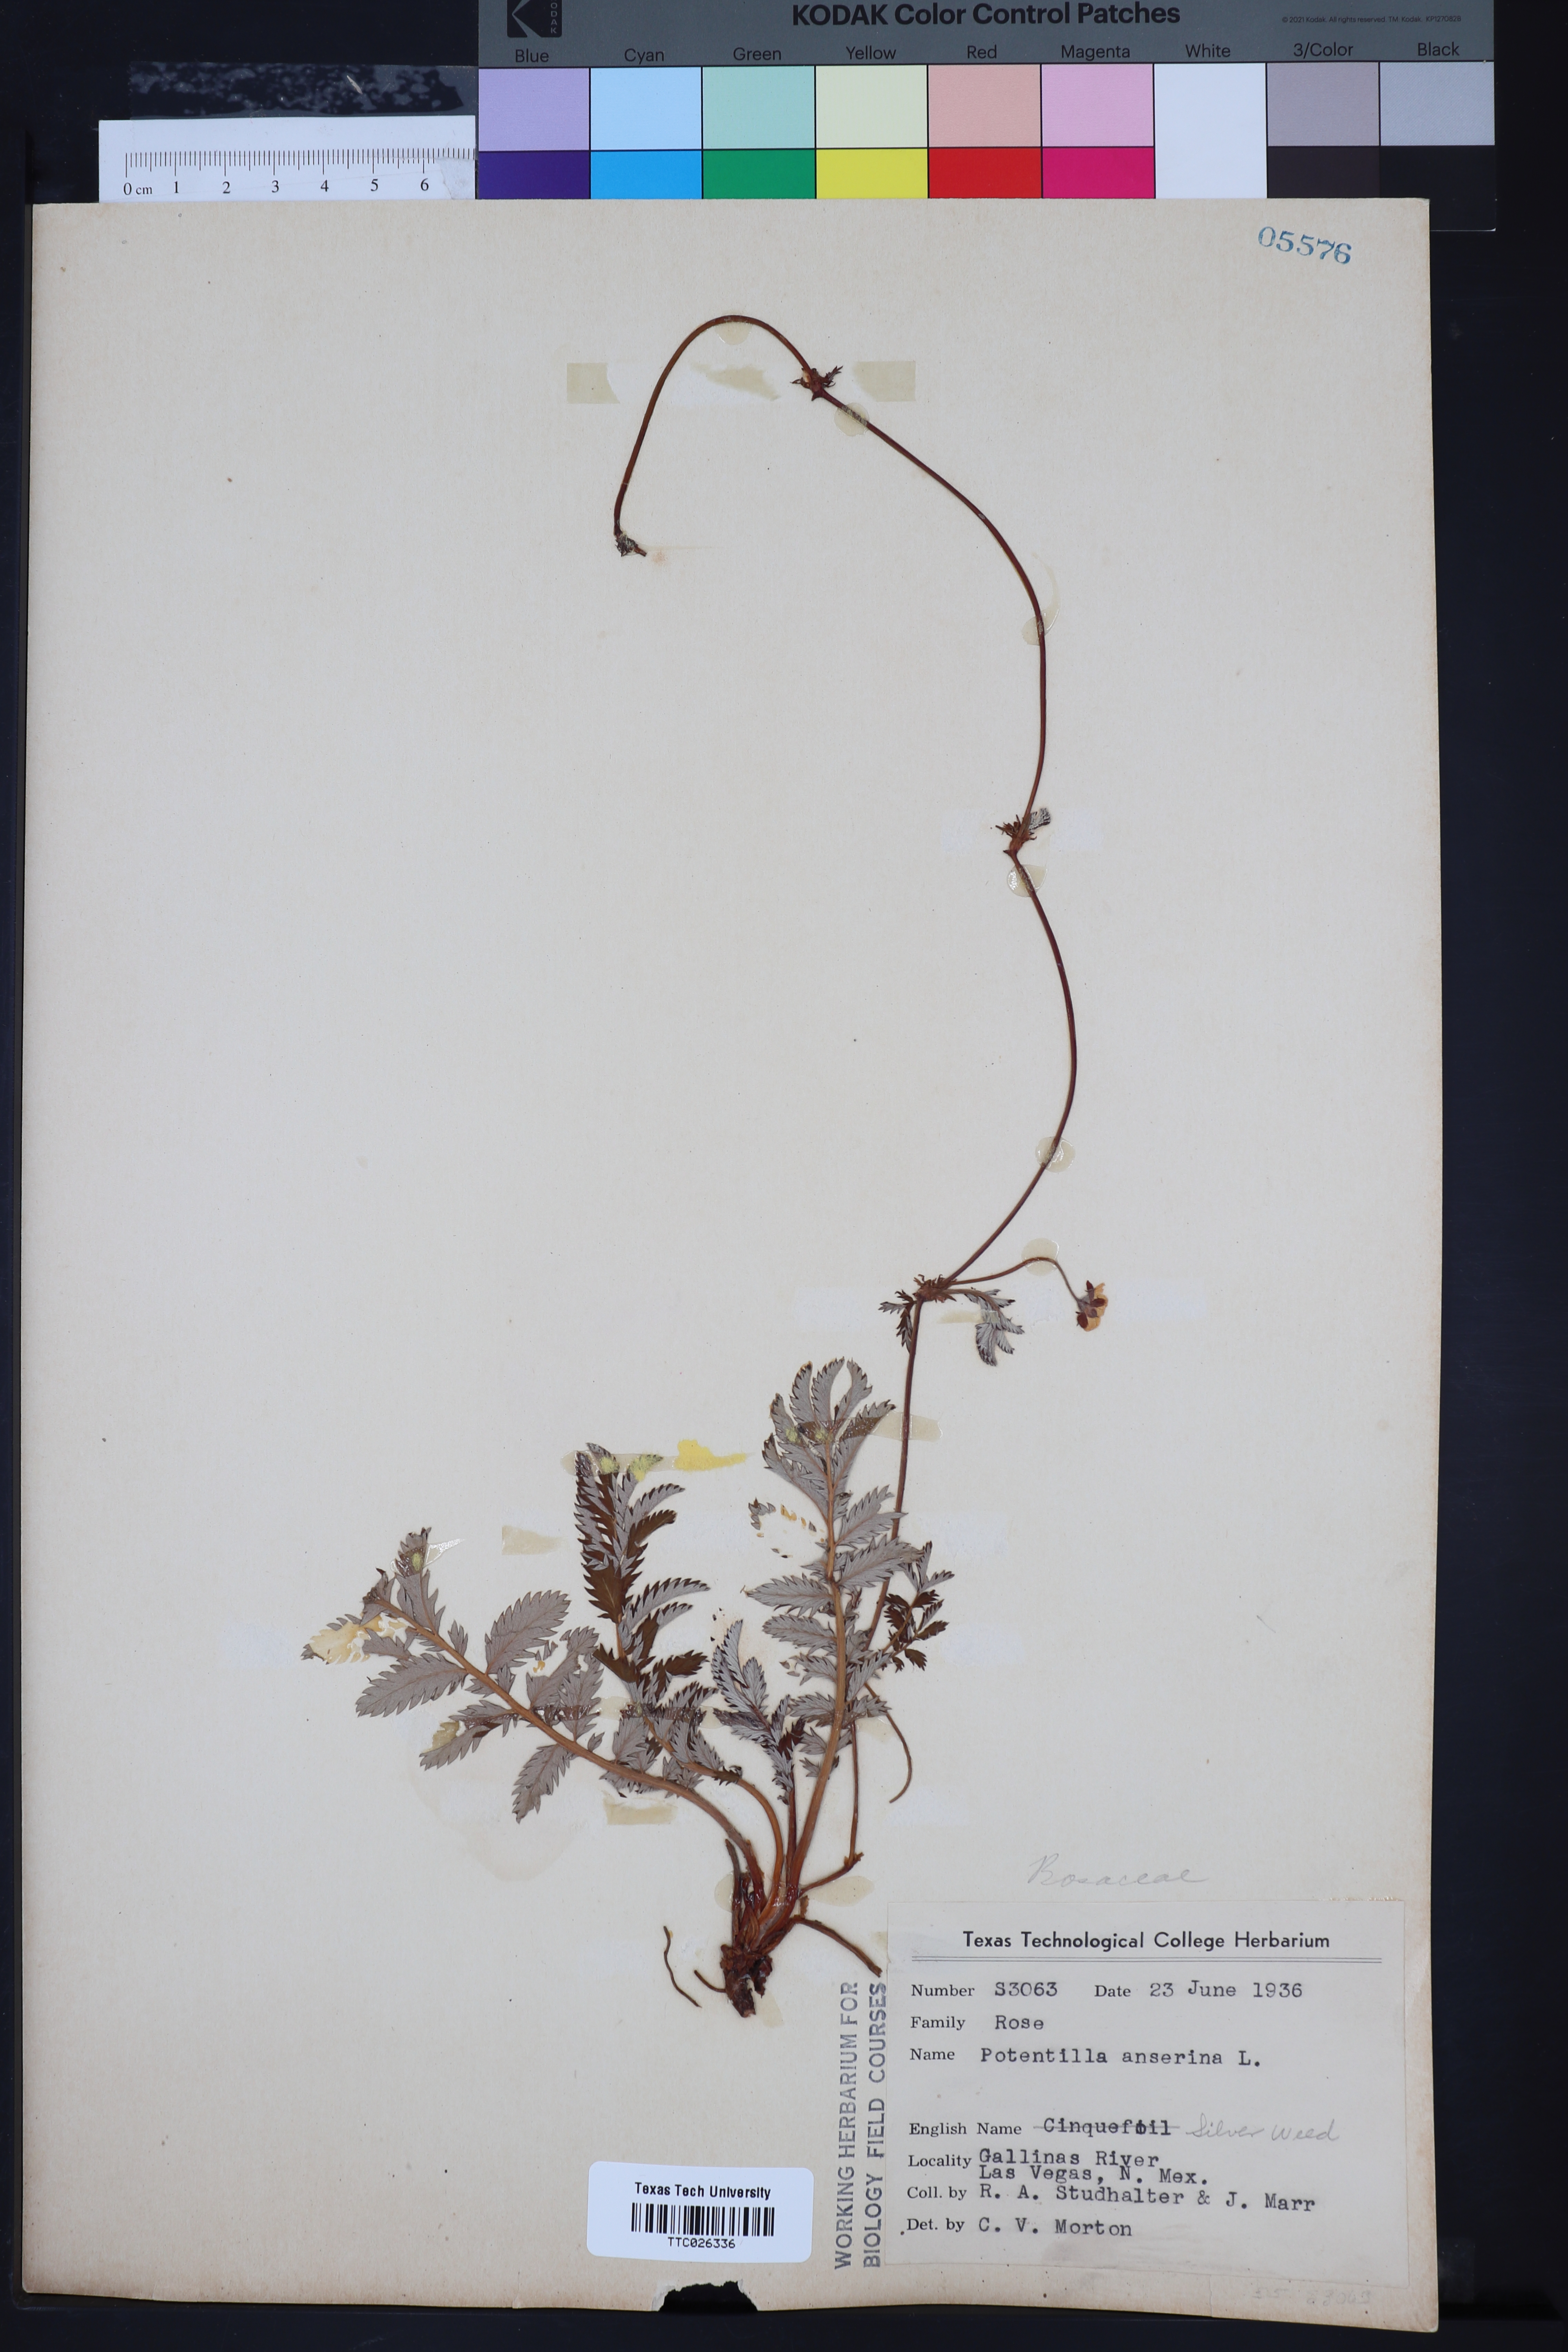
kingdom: Plantae
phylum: Tracheophyta
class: Magnoliopsida
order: Rosales
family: Rosaceae
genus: Argentina
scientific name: Argentina anserina
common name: Common silverweed
